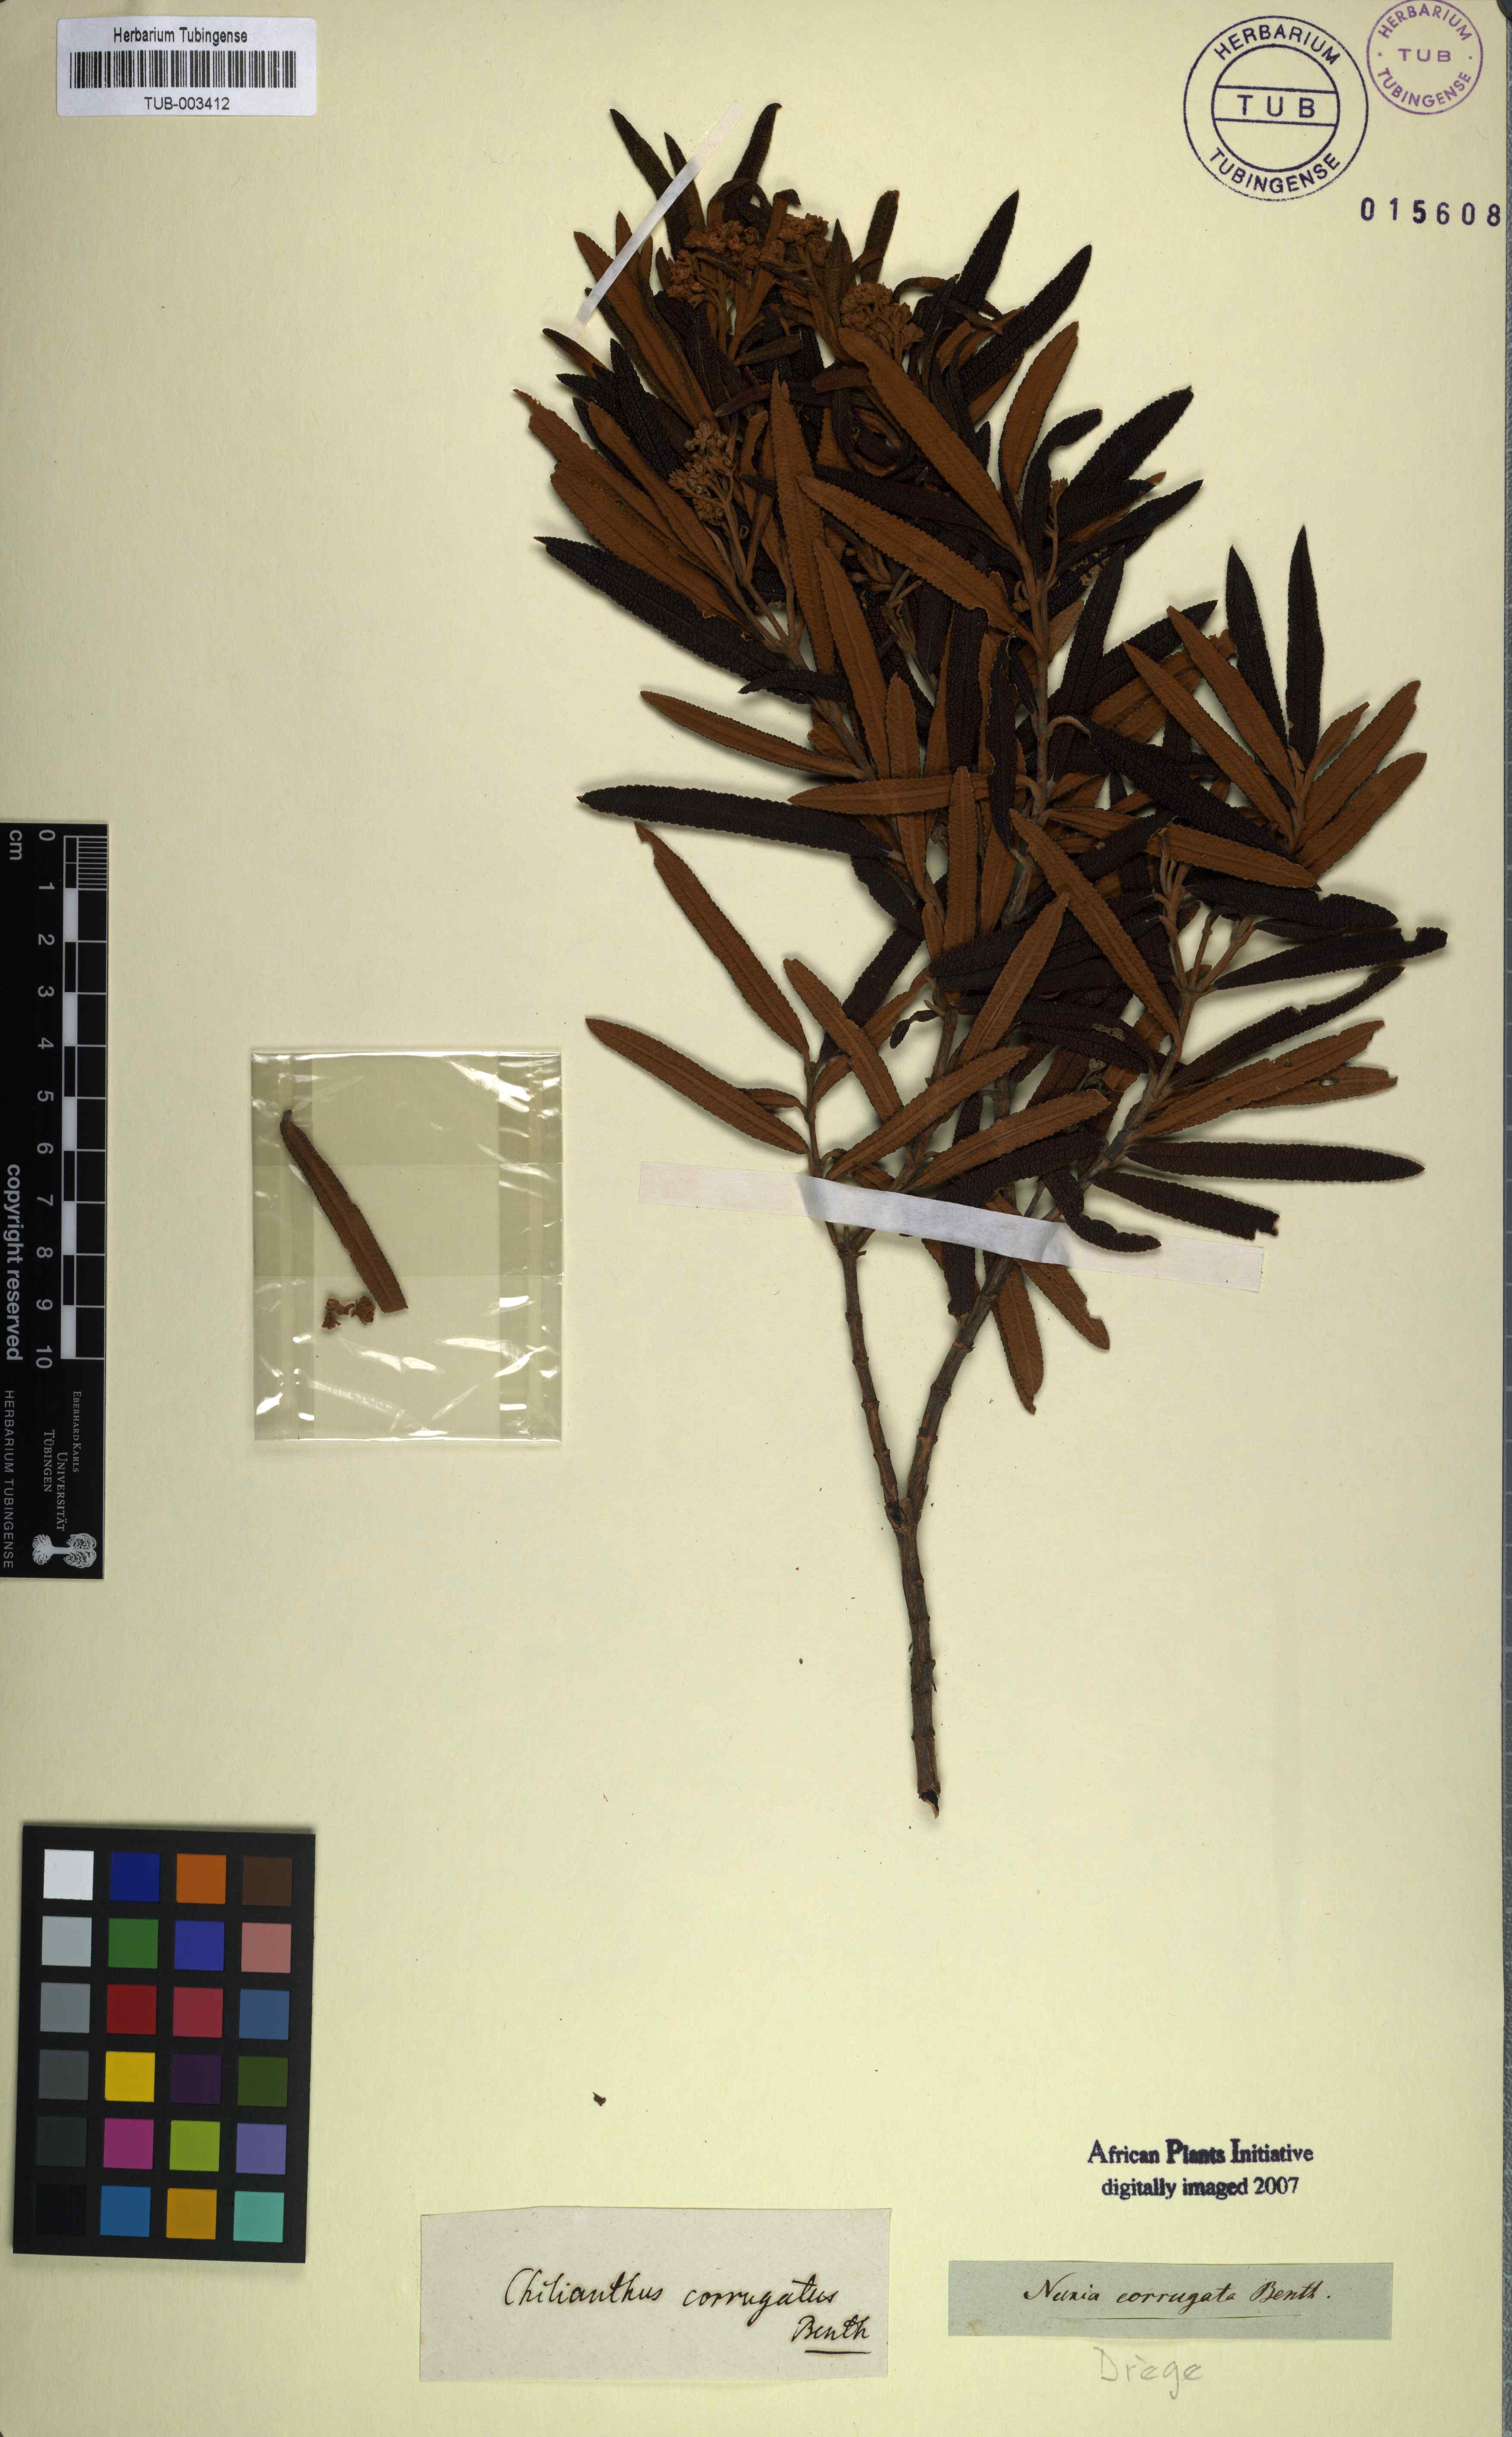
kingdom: Plantae
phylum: Tracheophyta
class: Magnoliopsida
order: Lamiales
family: Scrophulariaceae
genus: Buddleja
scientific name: Buddleja loricata
